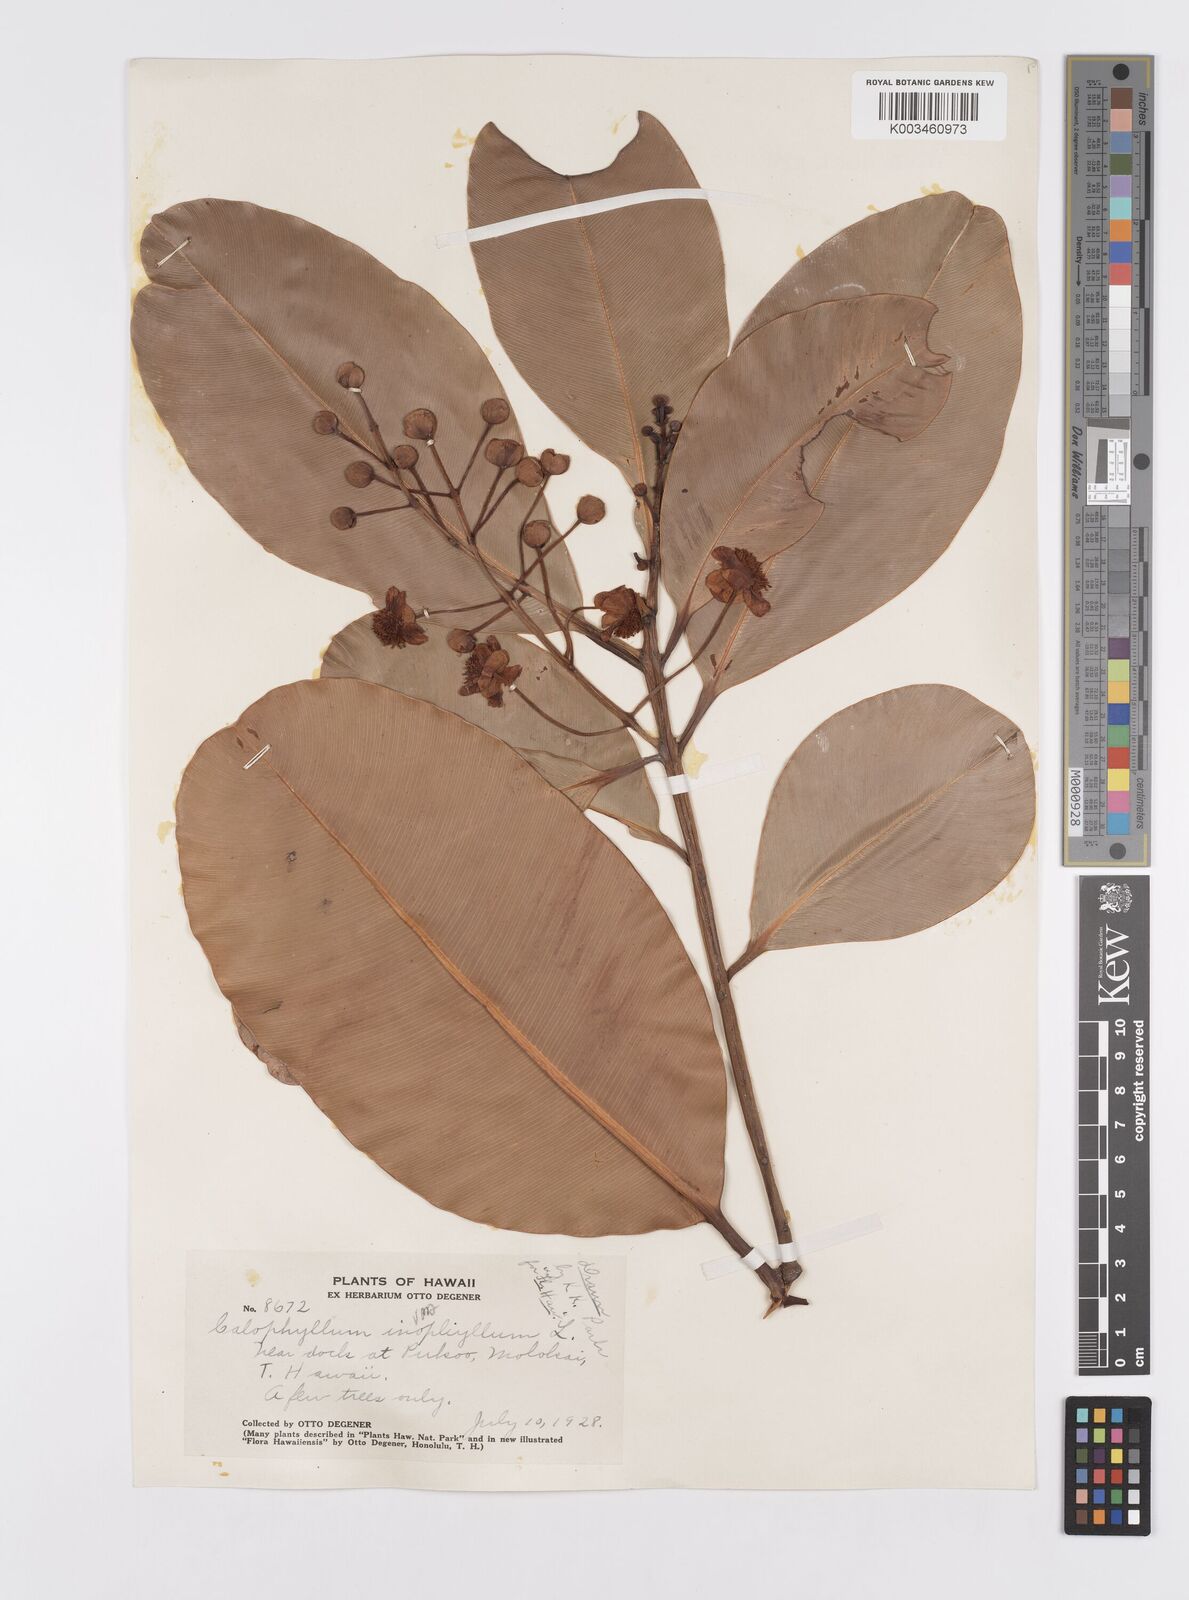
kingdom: Plantae
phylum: Tracheophyta
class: Magnoliopsida
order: Malpighiales
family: Calophyllaceae
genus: Calophyllum
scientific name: Calophyllum inophyllum
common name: Alexandrian laurel
